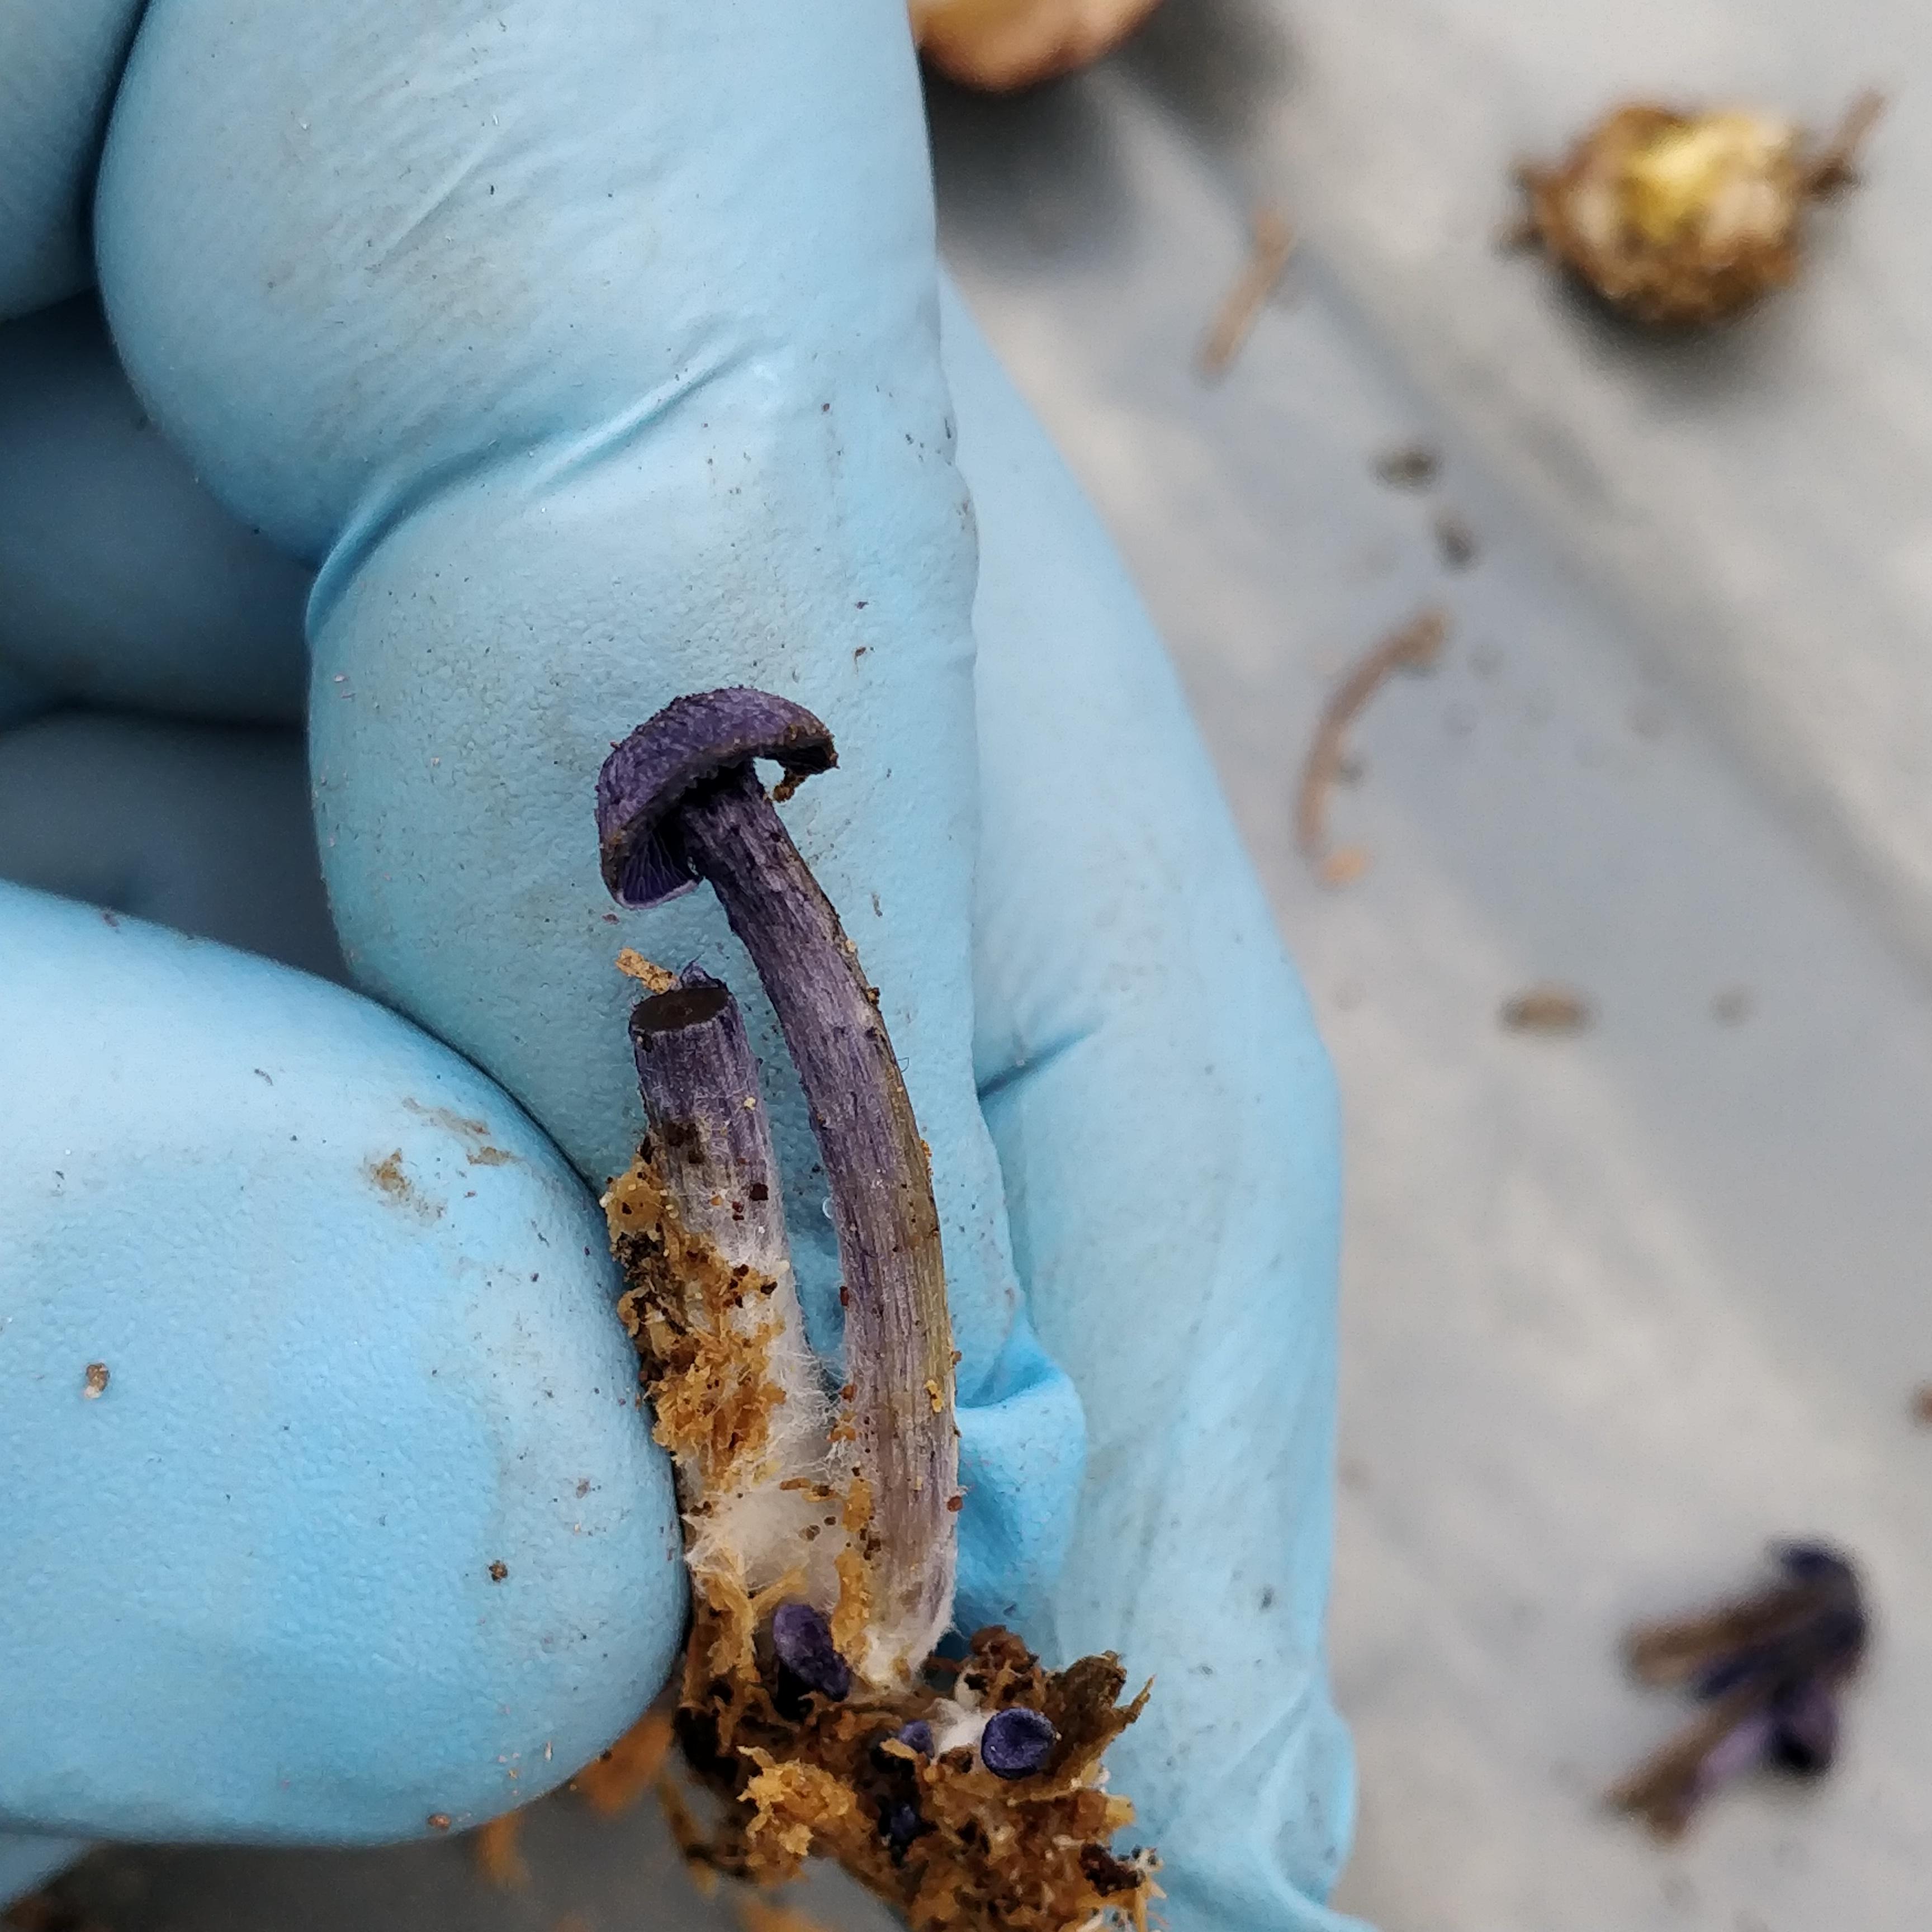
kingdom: Fungi
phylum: Basidiomycota
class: Agaricomycetes
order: Agaricales
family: Entolomataceae
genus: Entoloma
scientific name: Entoloma euchroum
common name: smuk rødblad
